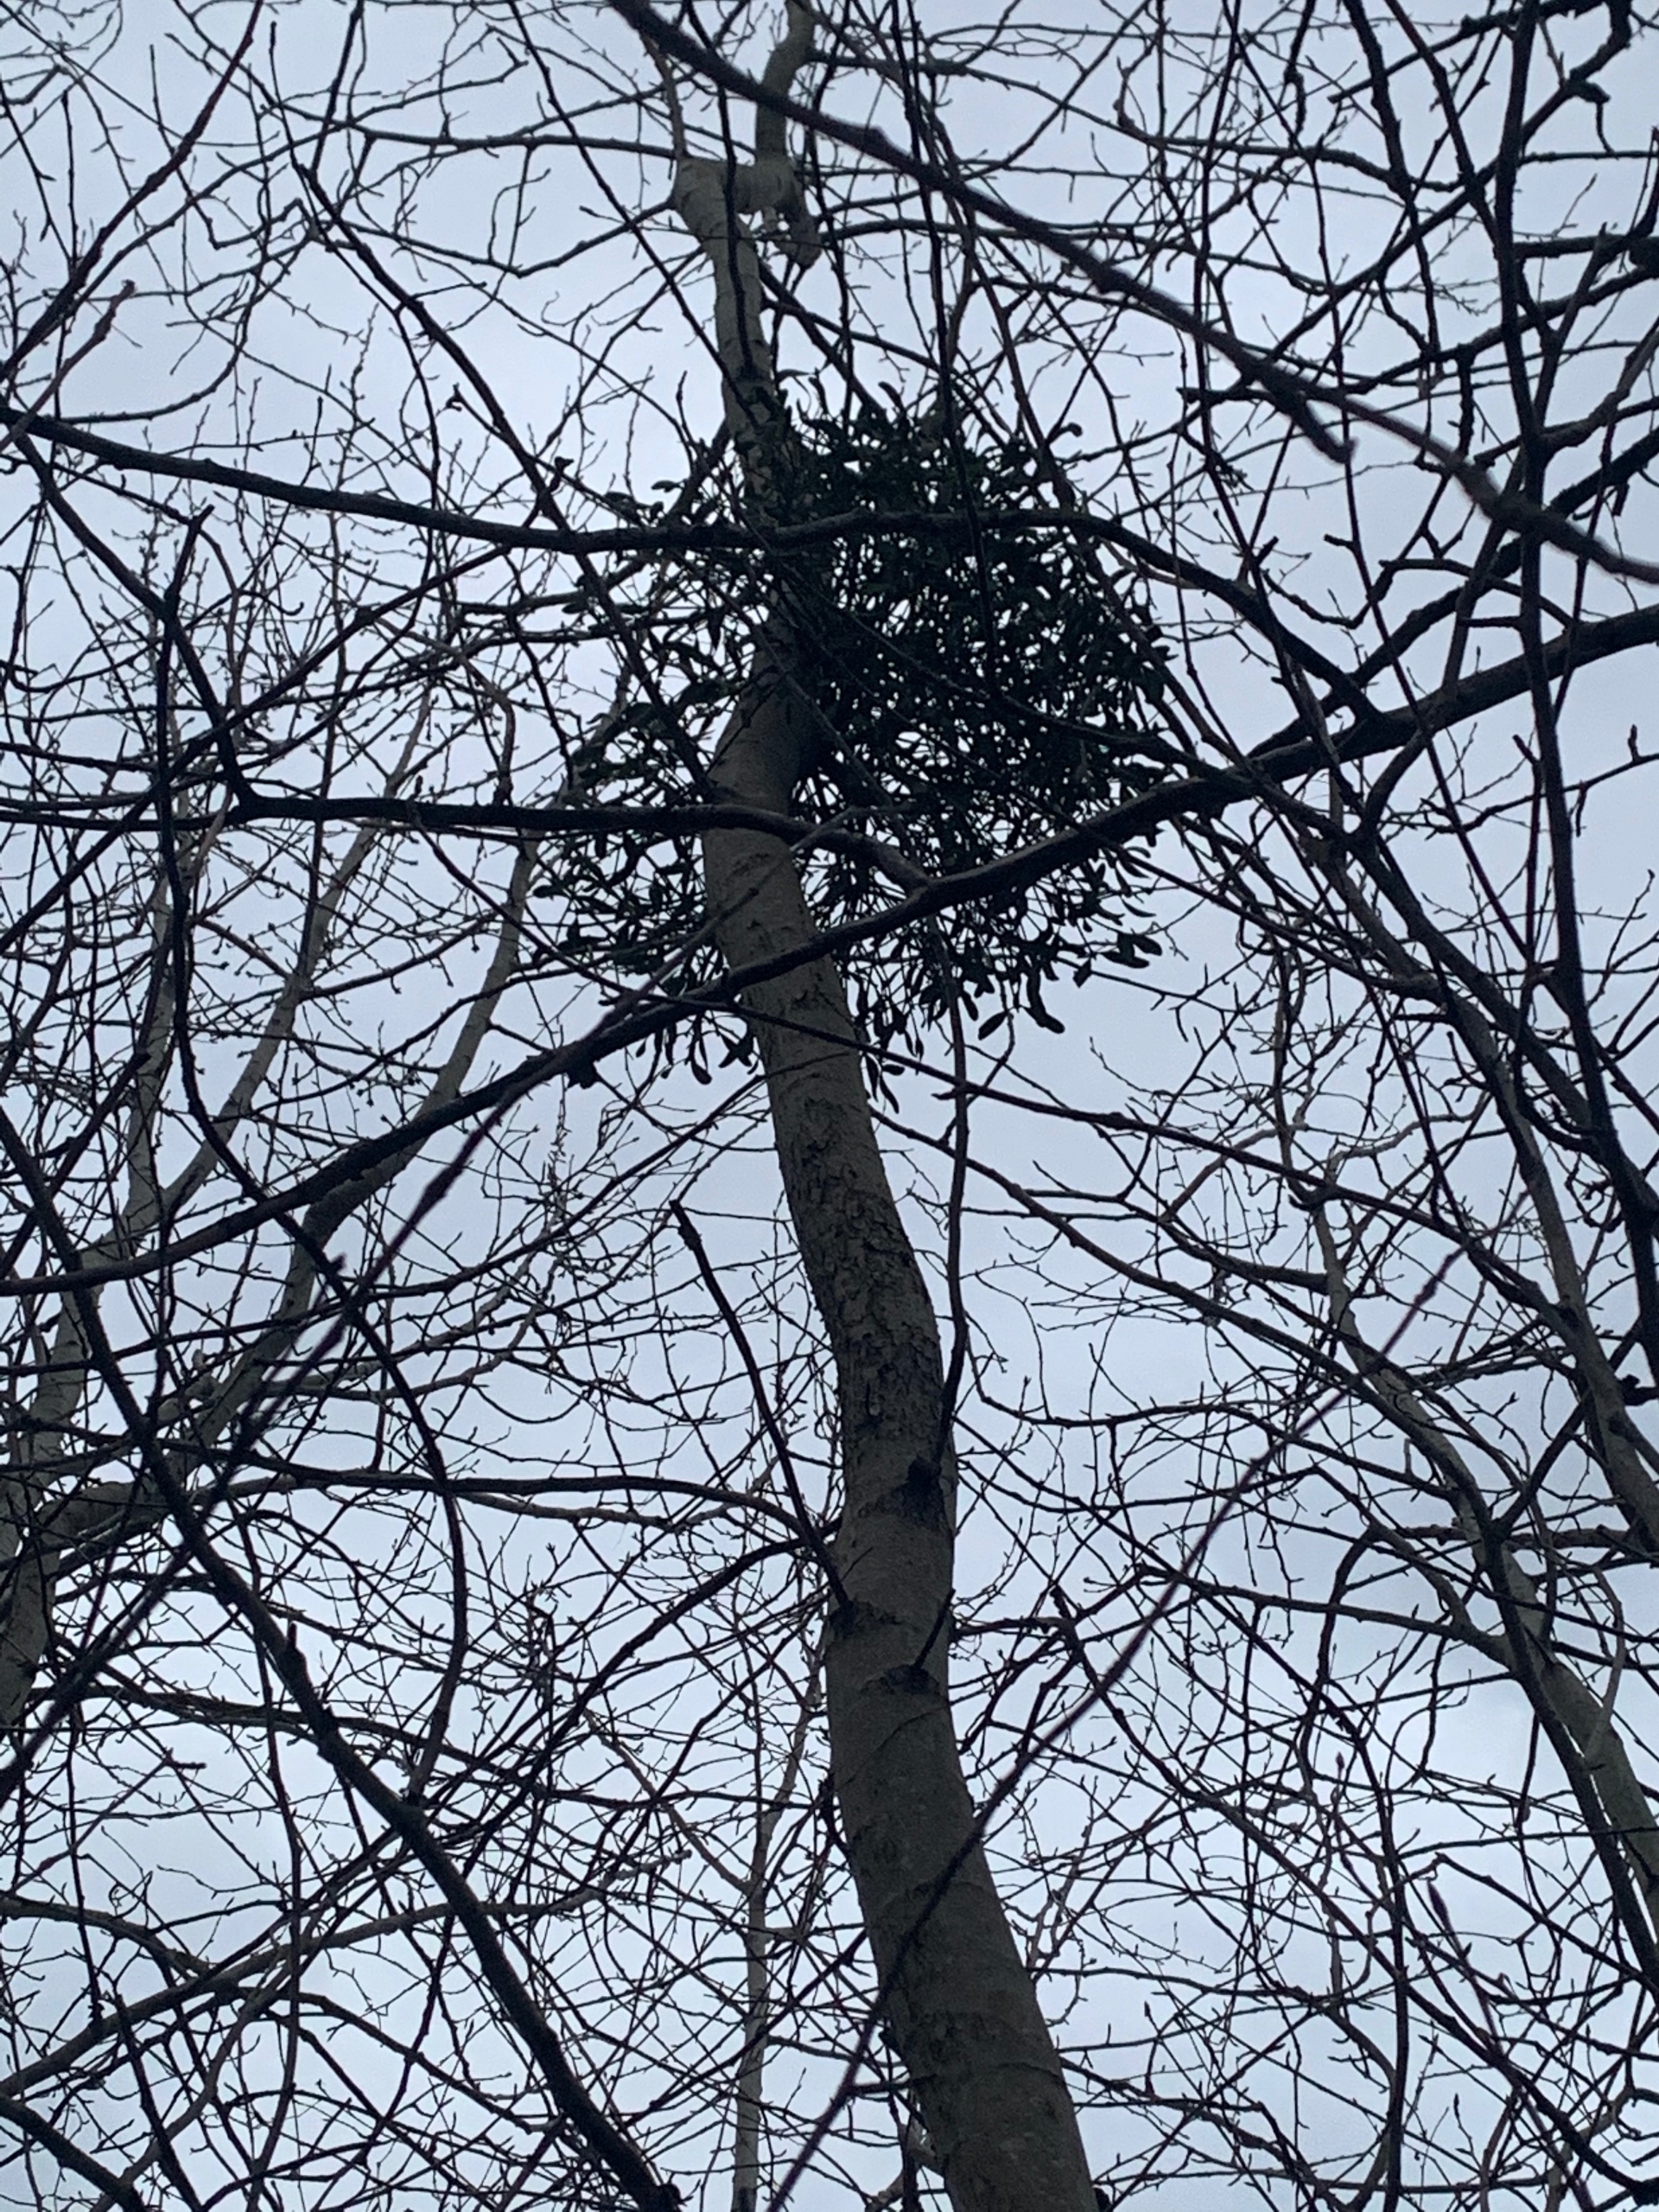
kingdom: Plantae
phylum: Tracheophyta
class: Magnoliopsida
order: Santalales
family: Viscaceae
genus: Viscum
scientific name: Viscum album
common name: Mistelten
